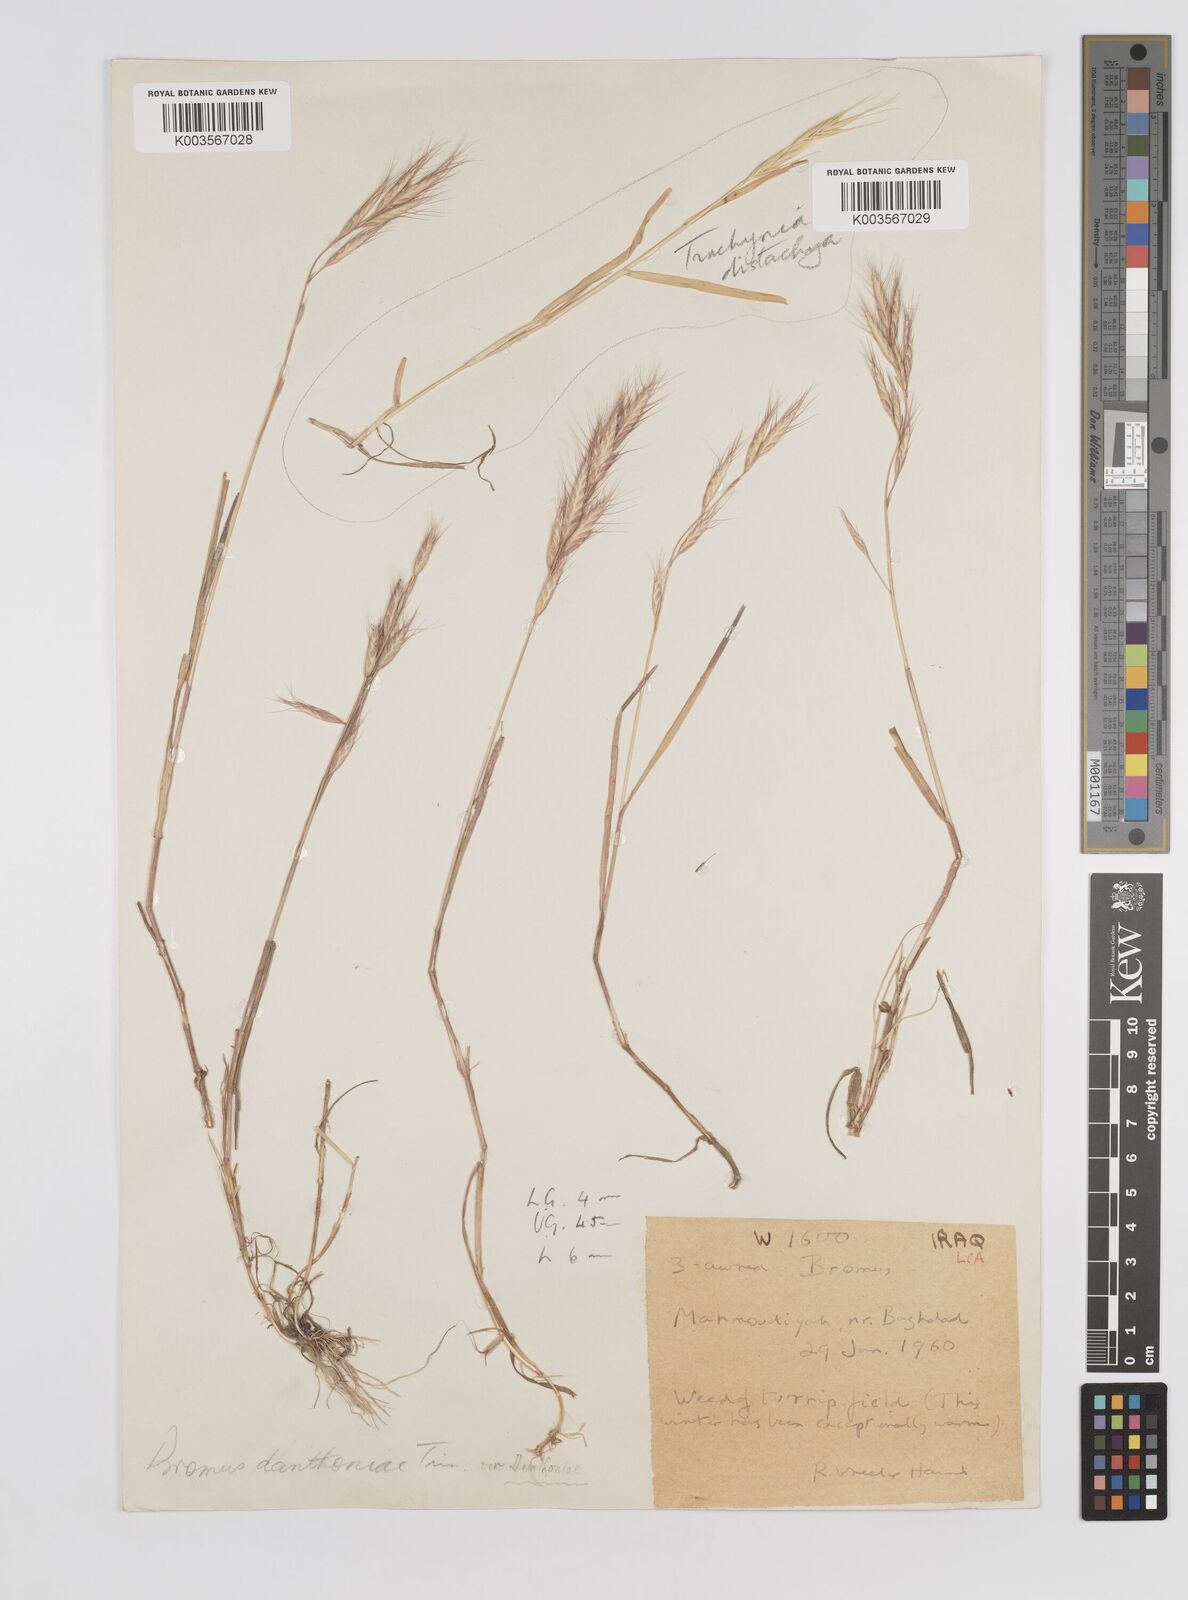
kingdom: Plantae
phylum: Tracheophyta
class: Liliopsida
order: Poales
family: Poaceae
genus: Bromus
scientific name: Bromus danthoniae
